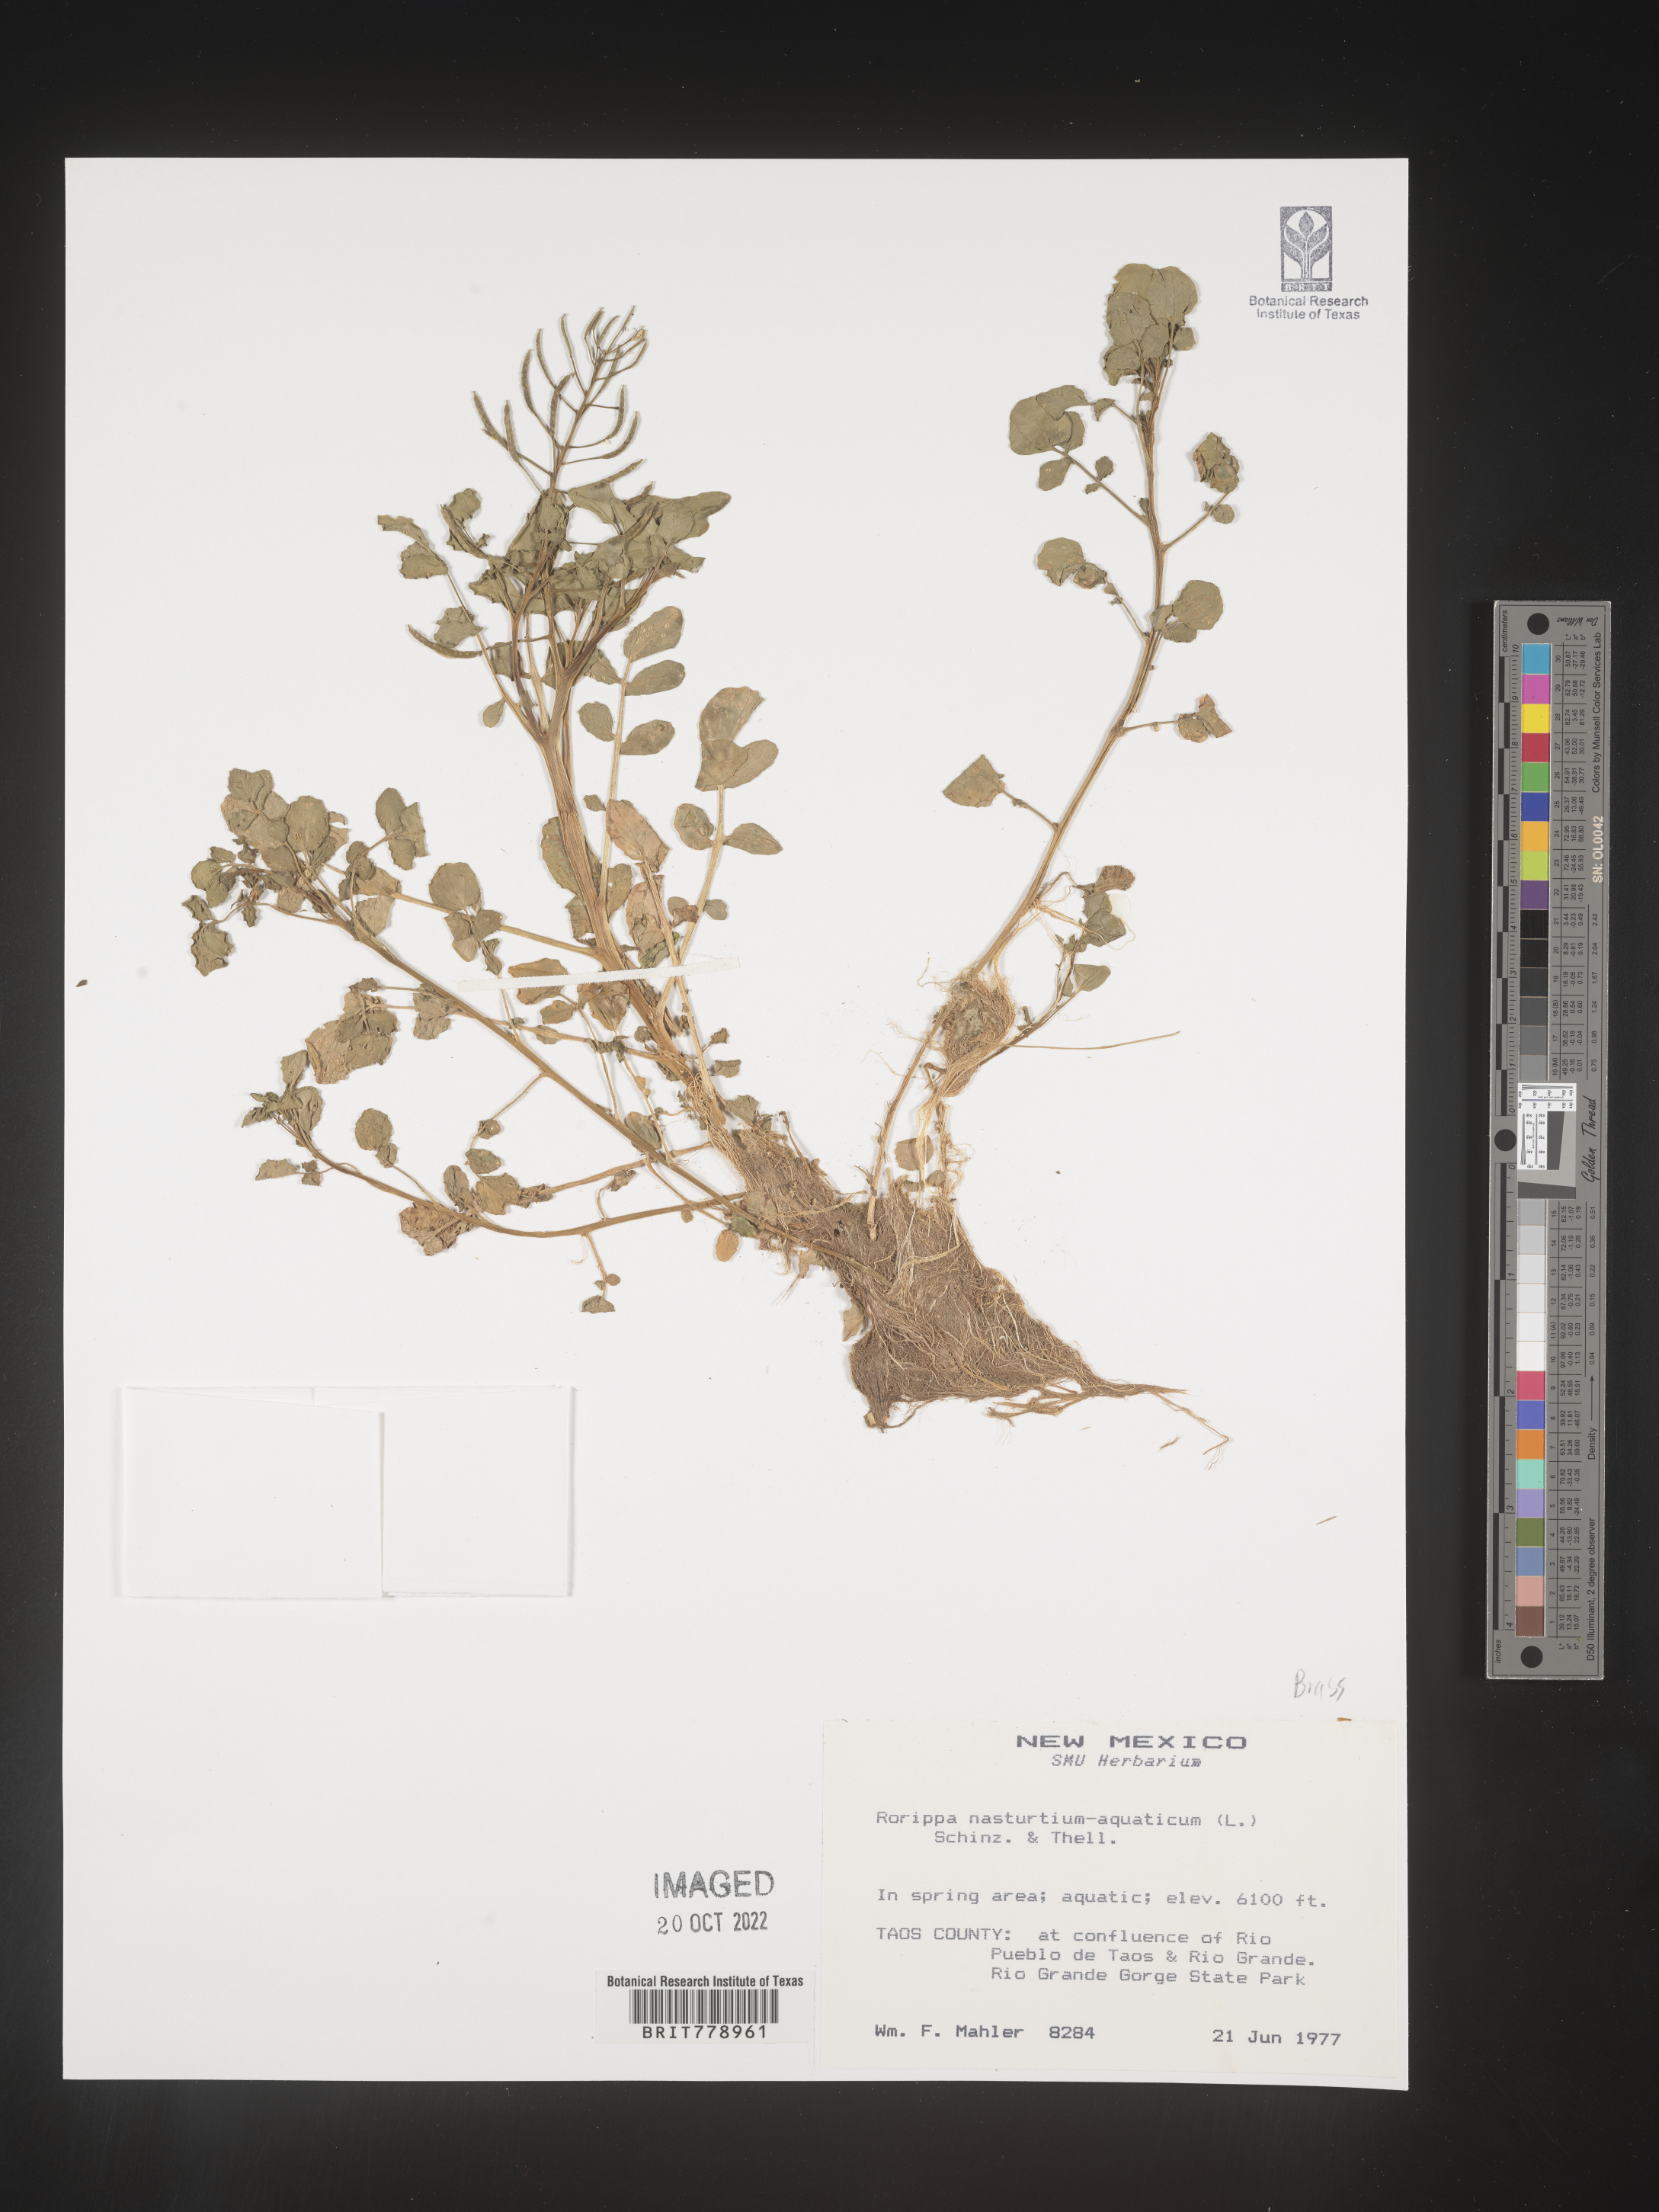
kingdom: Plantae
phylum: Tracheophyta
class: Magnoliopsida
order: Brassicales
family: Brassicaceae
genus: Nasturtium
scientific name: Nasturtium officinale
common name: Watercress
